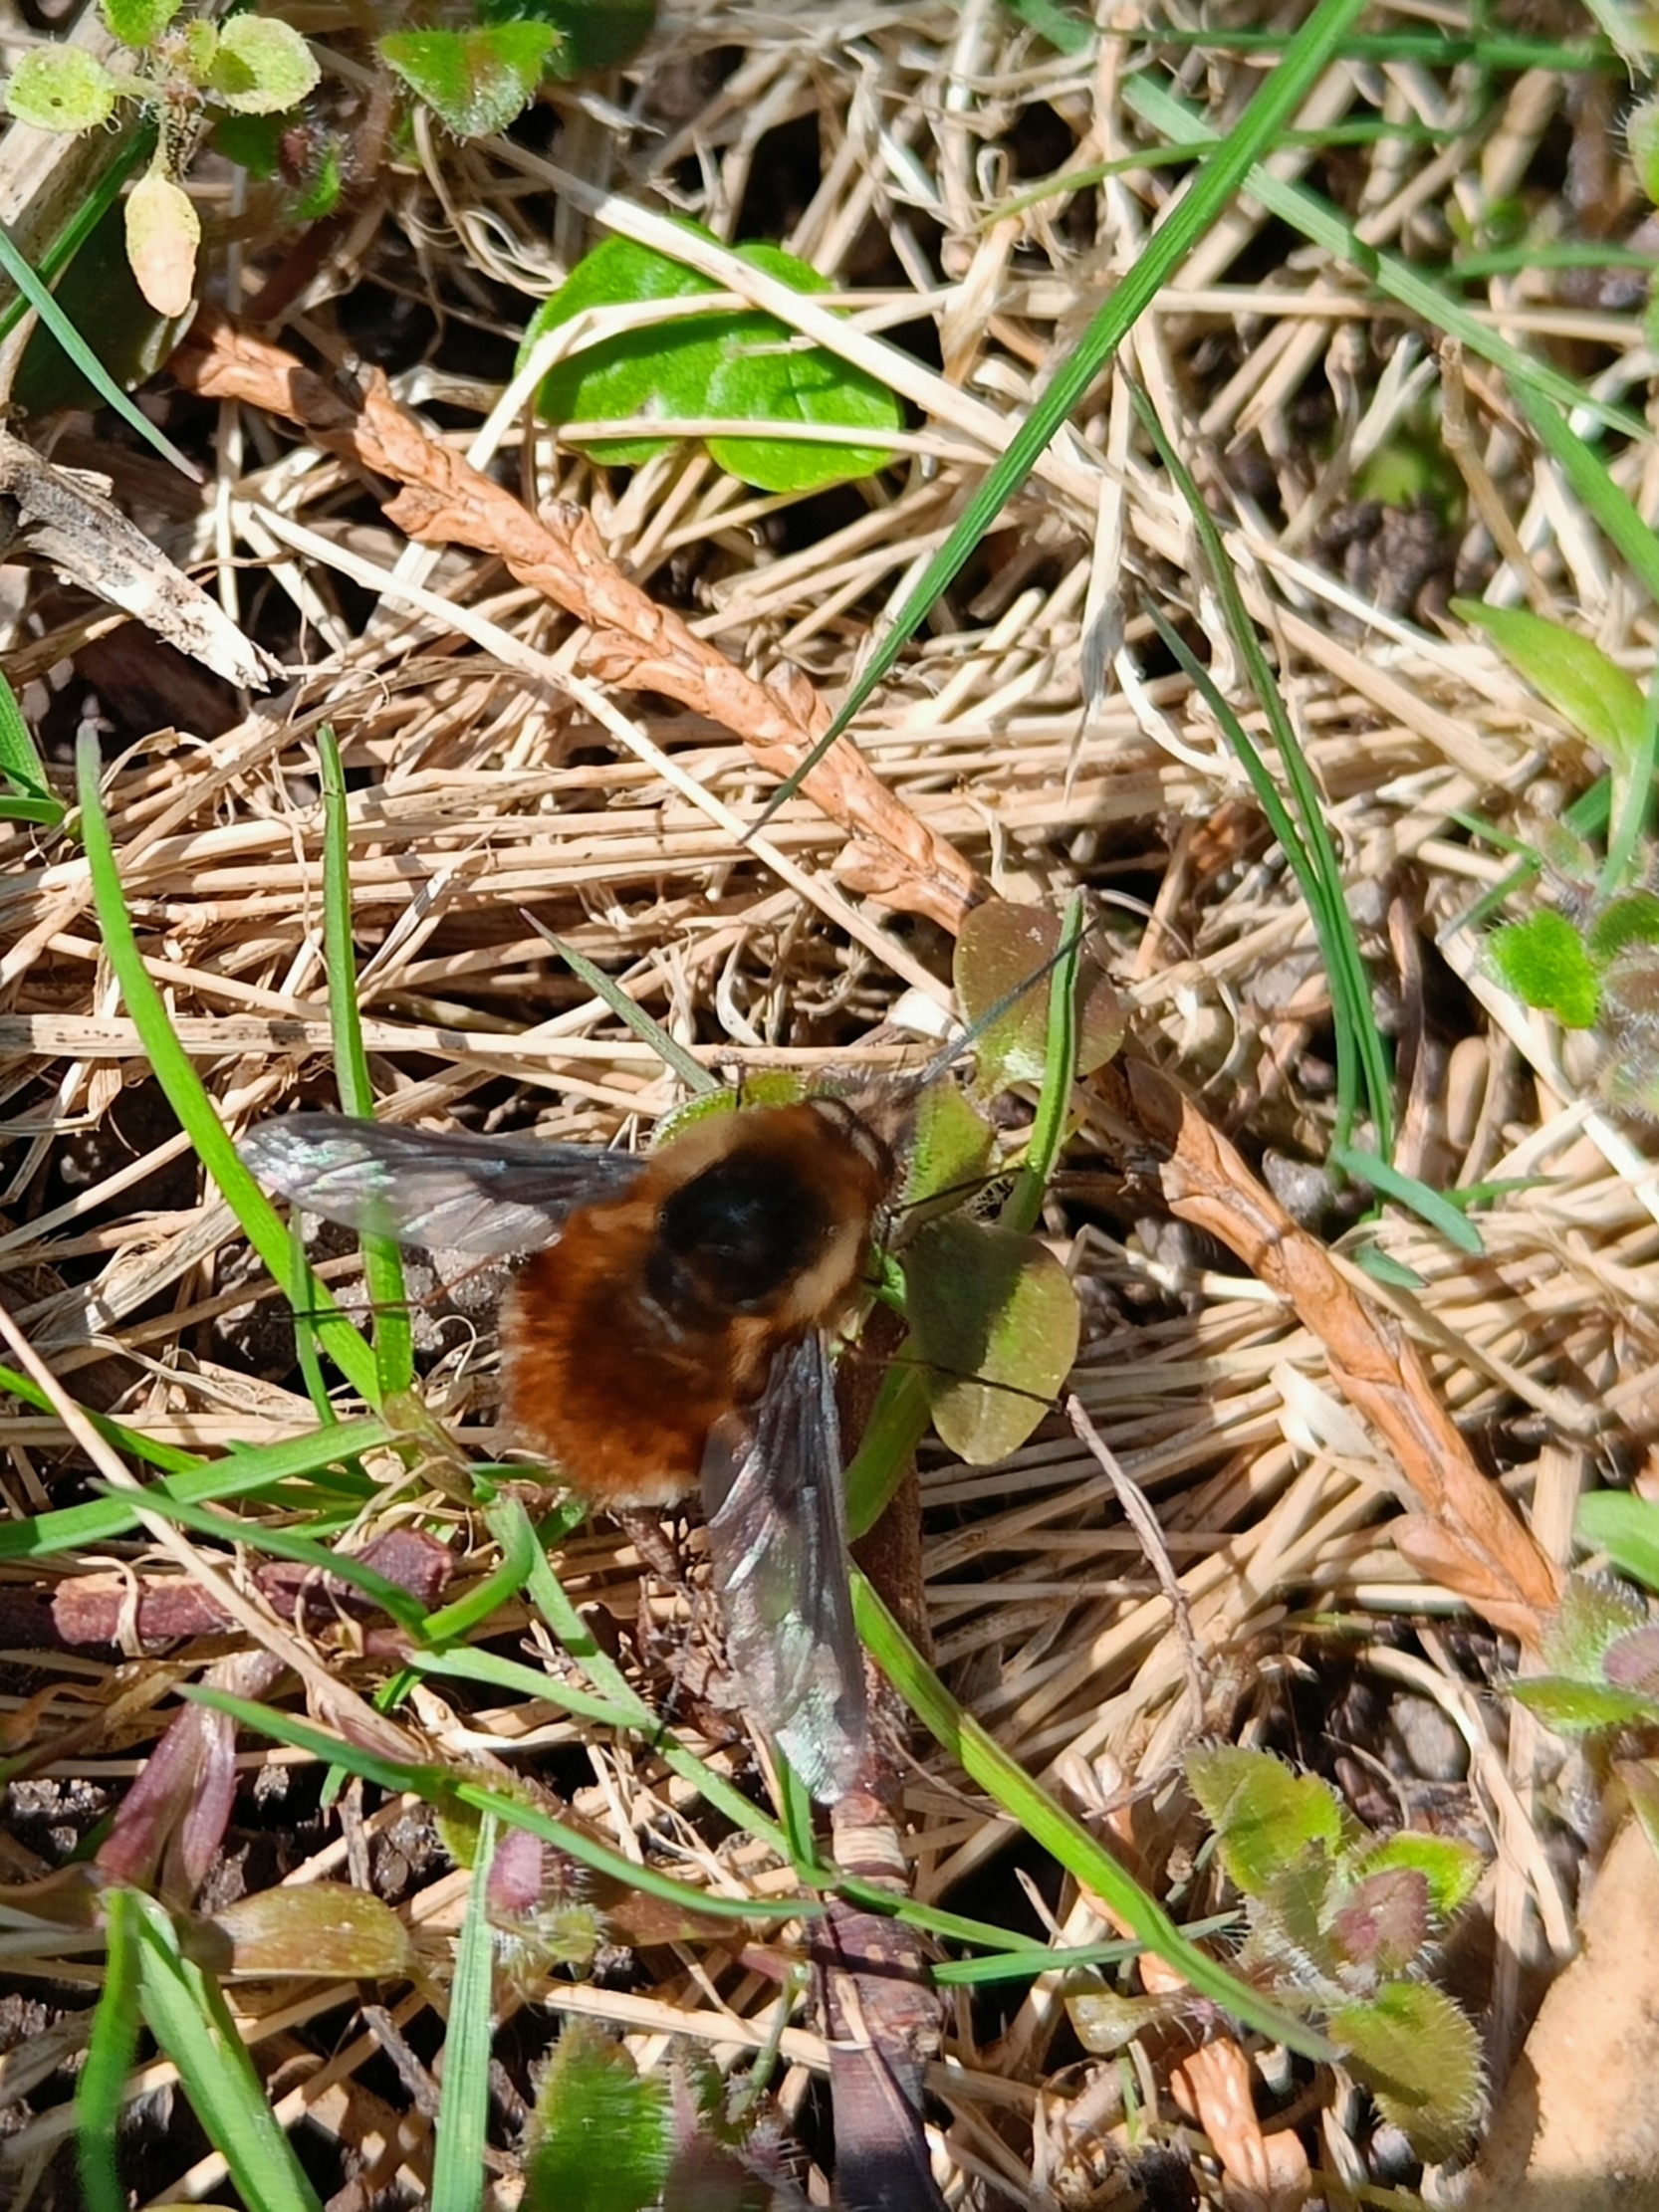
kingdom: Animalia
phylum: Arthropoda
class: Insecta
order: Diptera
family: Bombyliidae
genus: Bombylius
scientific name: Bombylius major
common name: Stor humleflue
